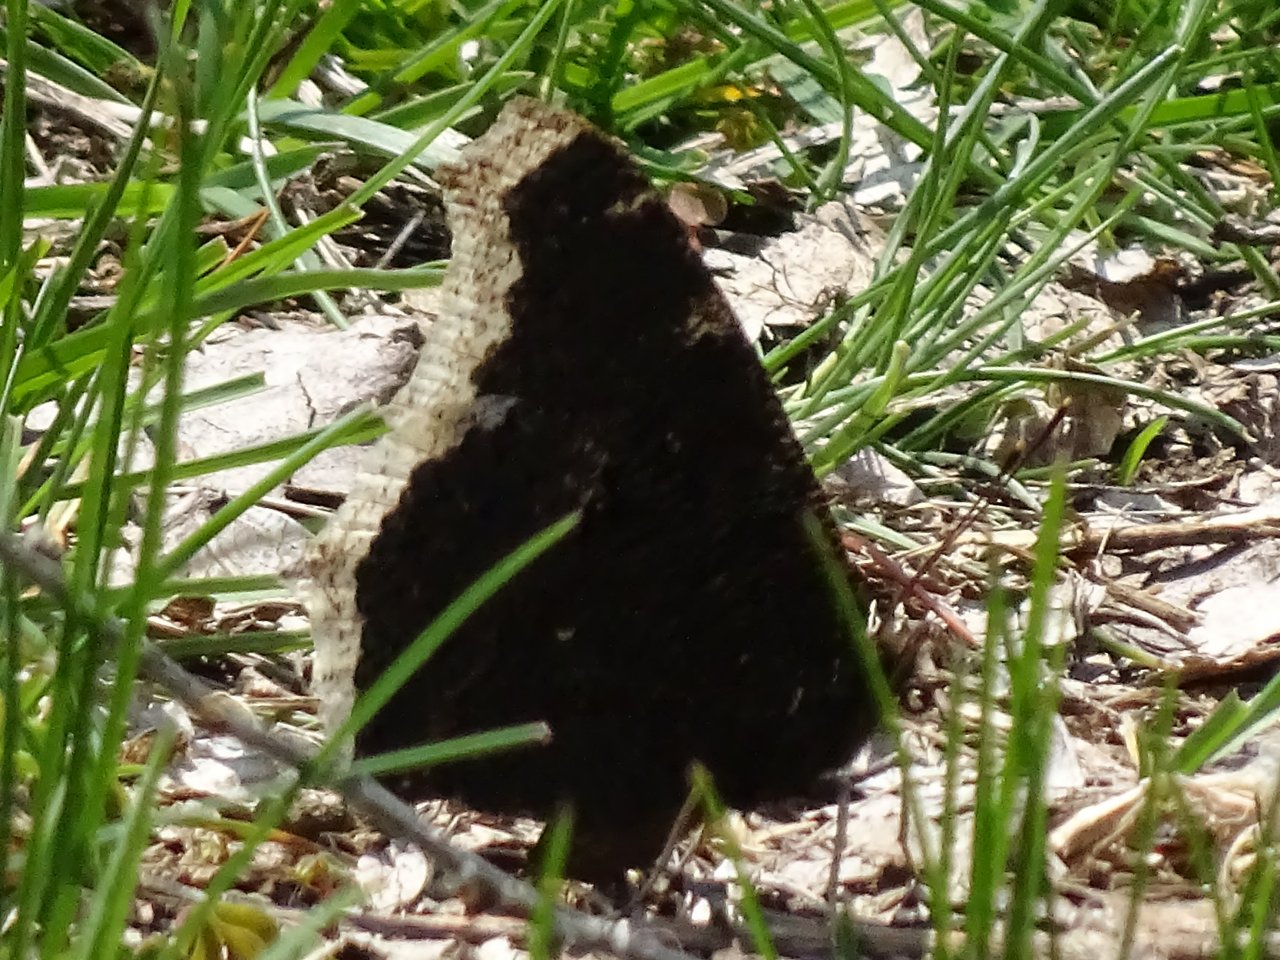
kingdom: Animalia
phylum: Arthropoda
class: Insecta
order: Lepidoptera
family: Nymphalidae
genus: Nymphalis
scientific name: Nymphalis antiopa
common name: Mourning Cloak
